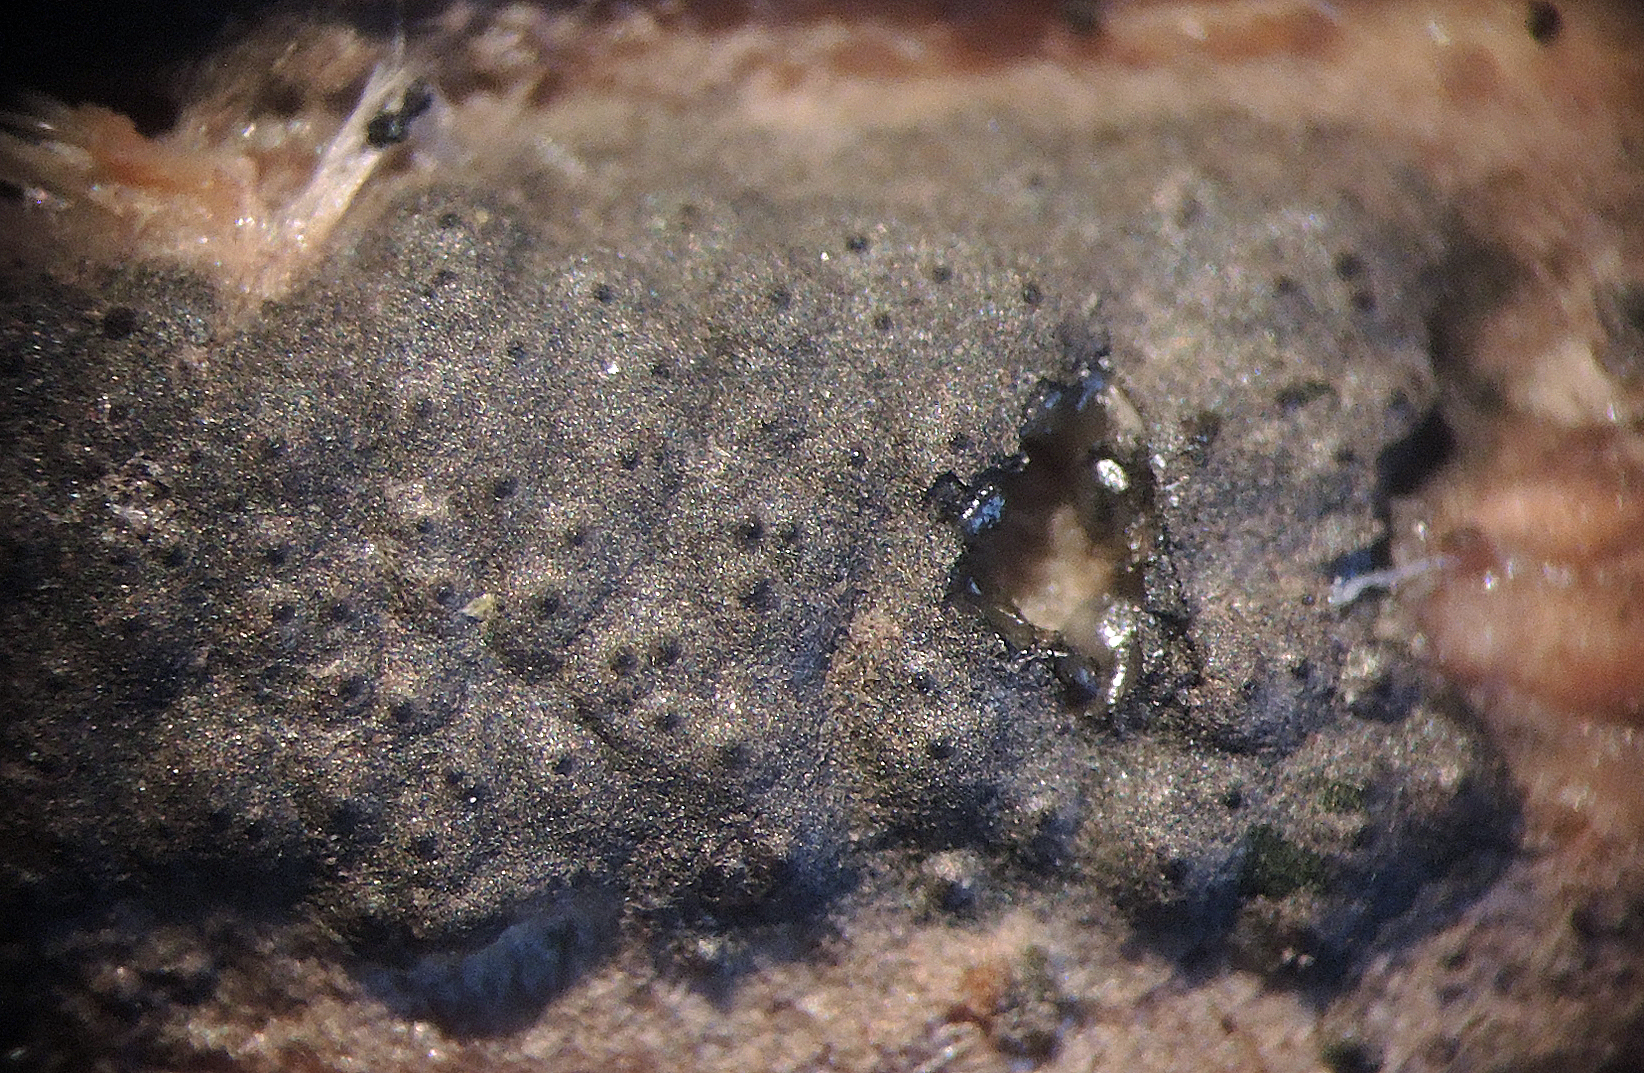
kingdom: Fungi
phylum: Ascomycota
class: Sordariomycetes
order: Xylariales
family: Xylariaceae
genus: Nemania
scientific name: Nemania aenea
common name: storsporet kuldyne
